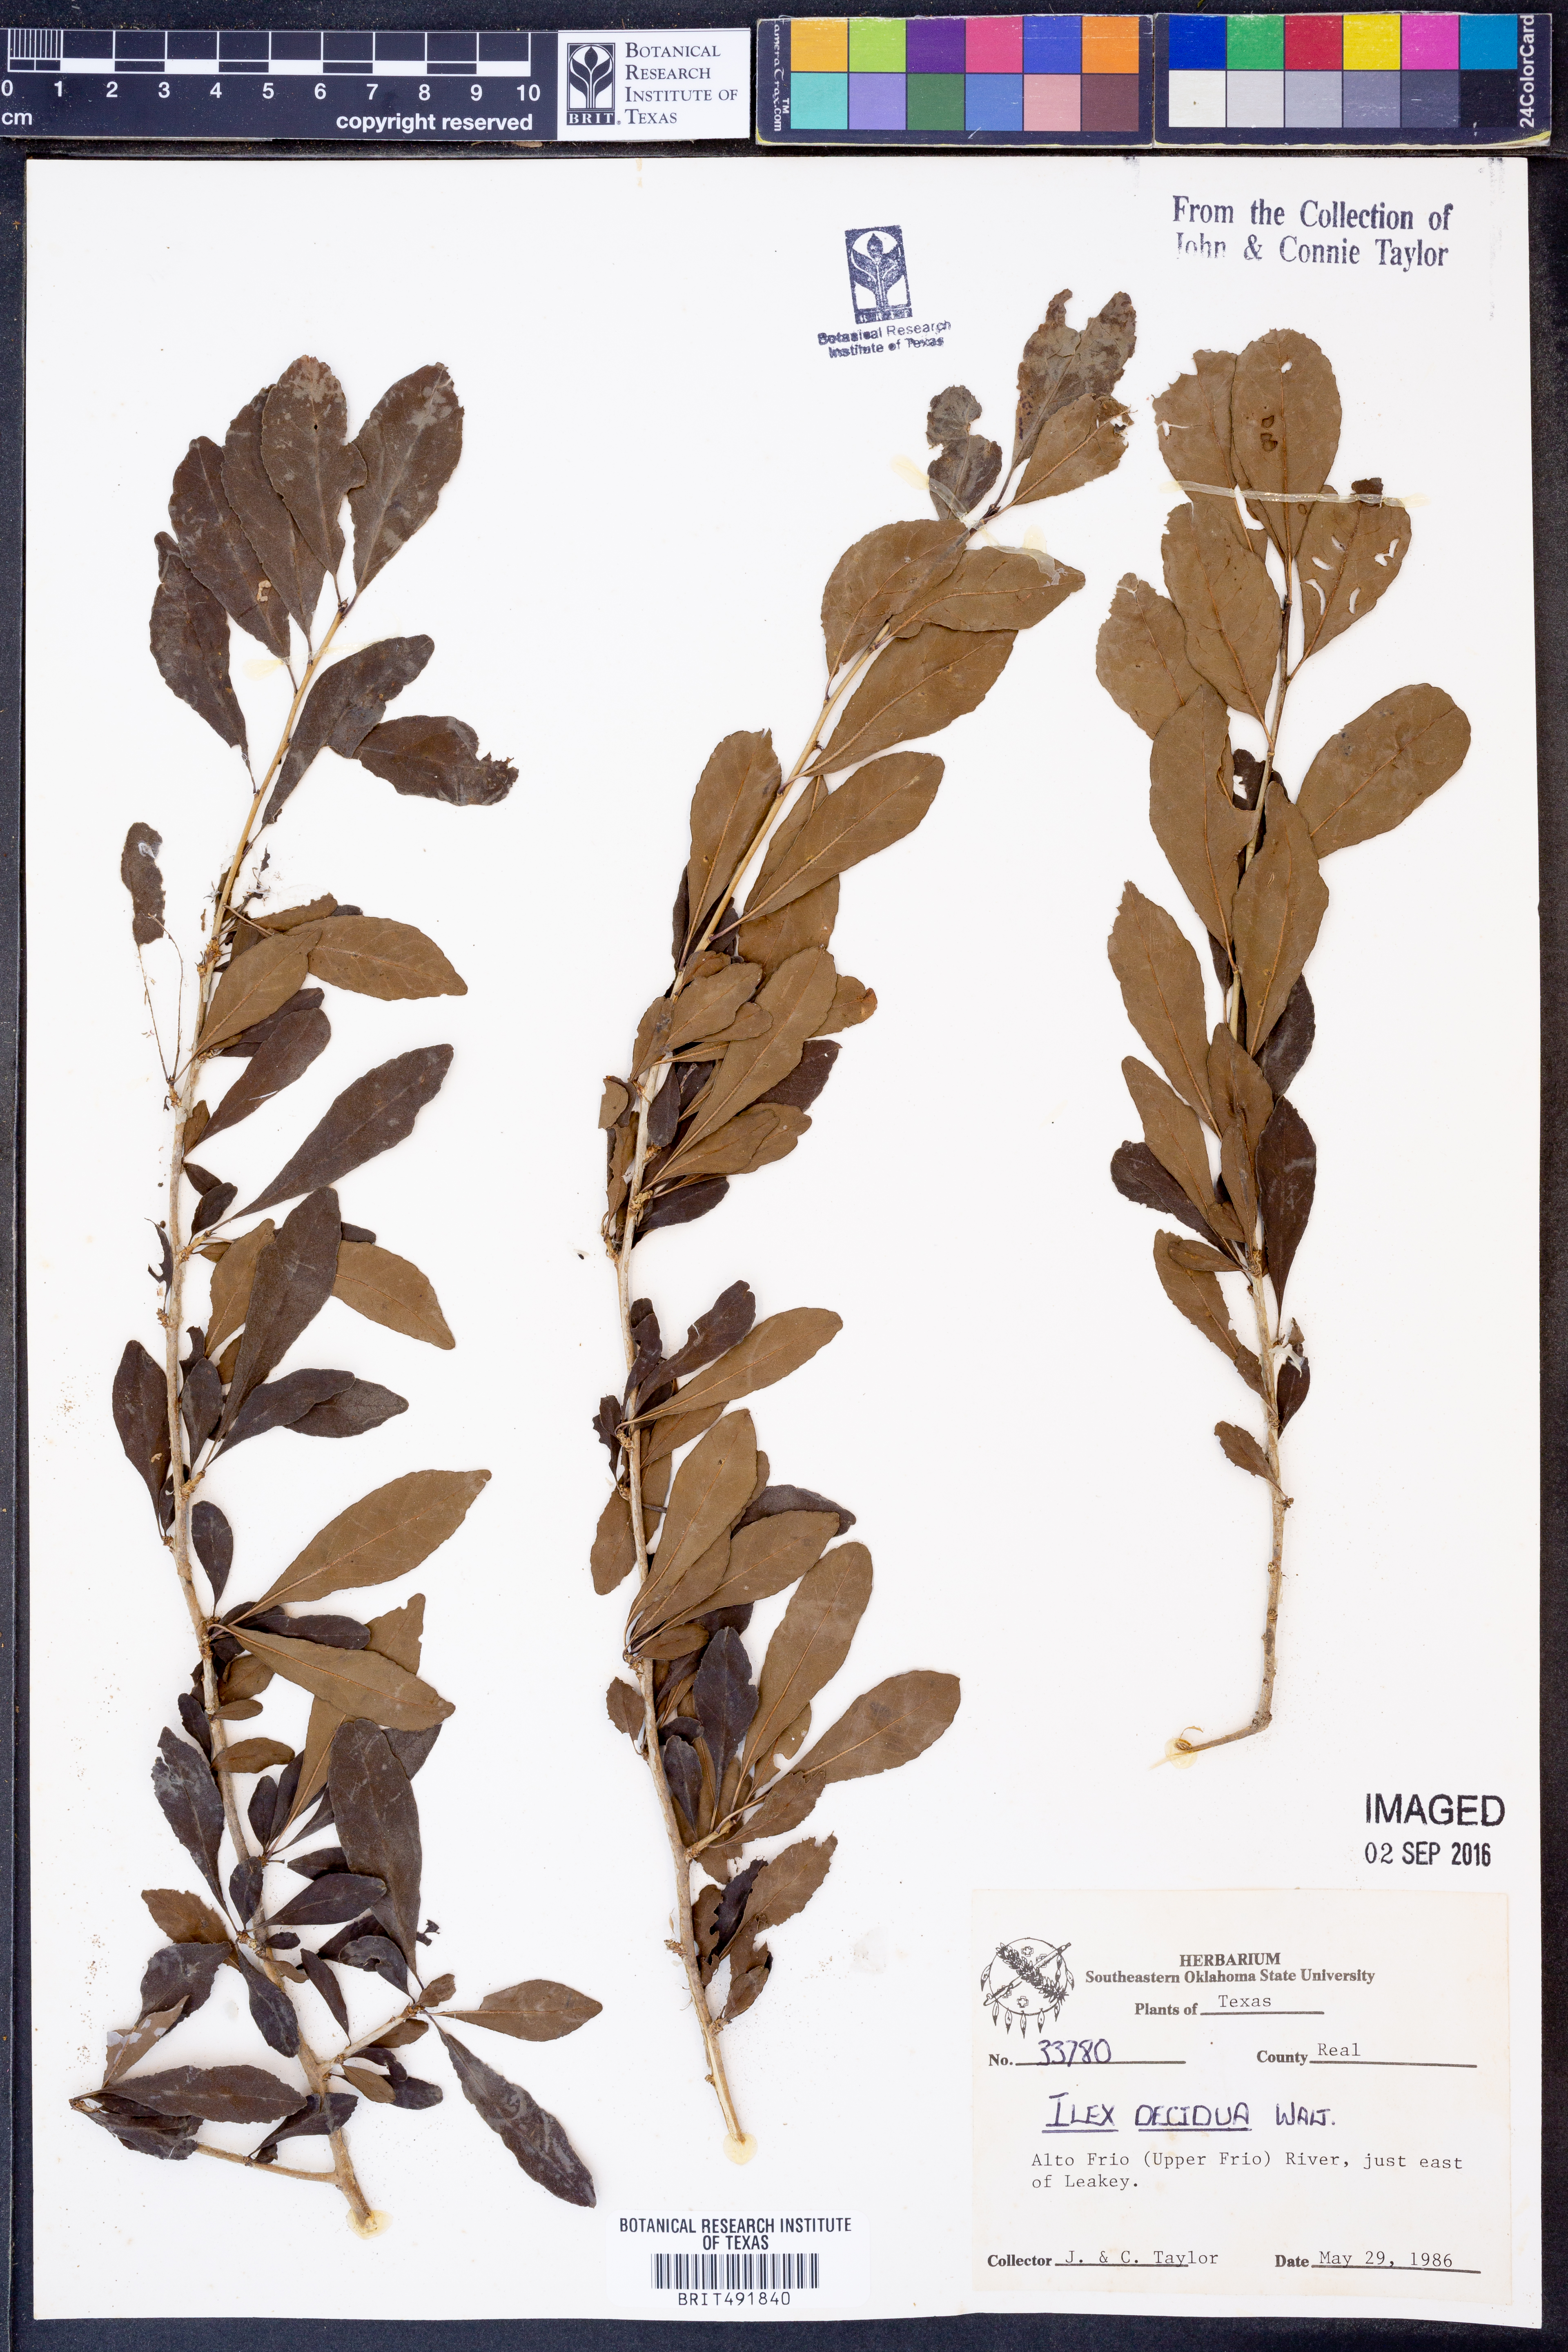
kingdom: Plantae
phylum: Tracheophyta
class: Magnoliopsida
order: Aquifoliales
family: Aquifoliaceae
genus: Ilex
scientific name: Ilex decidua
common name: Possum-haw
